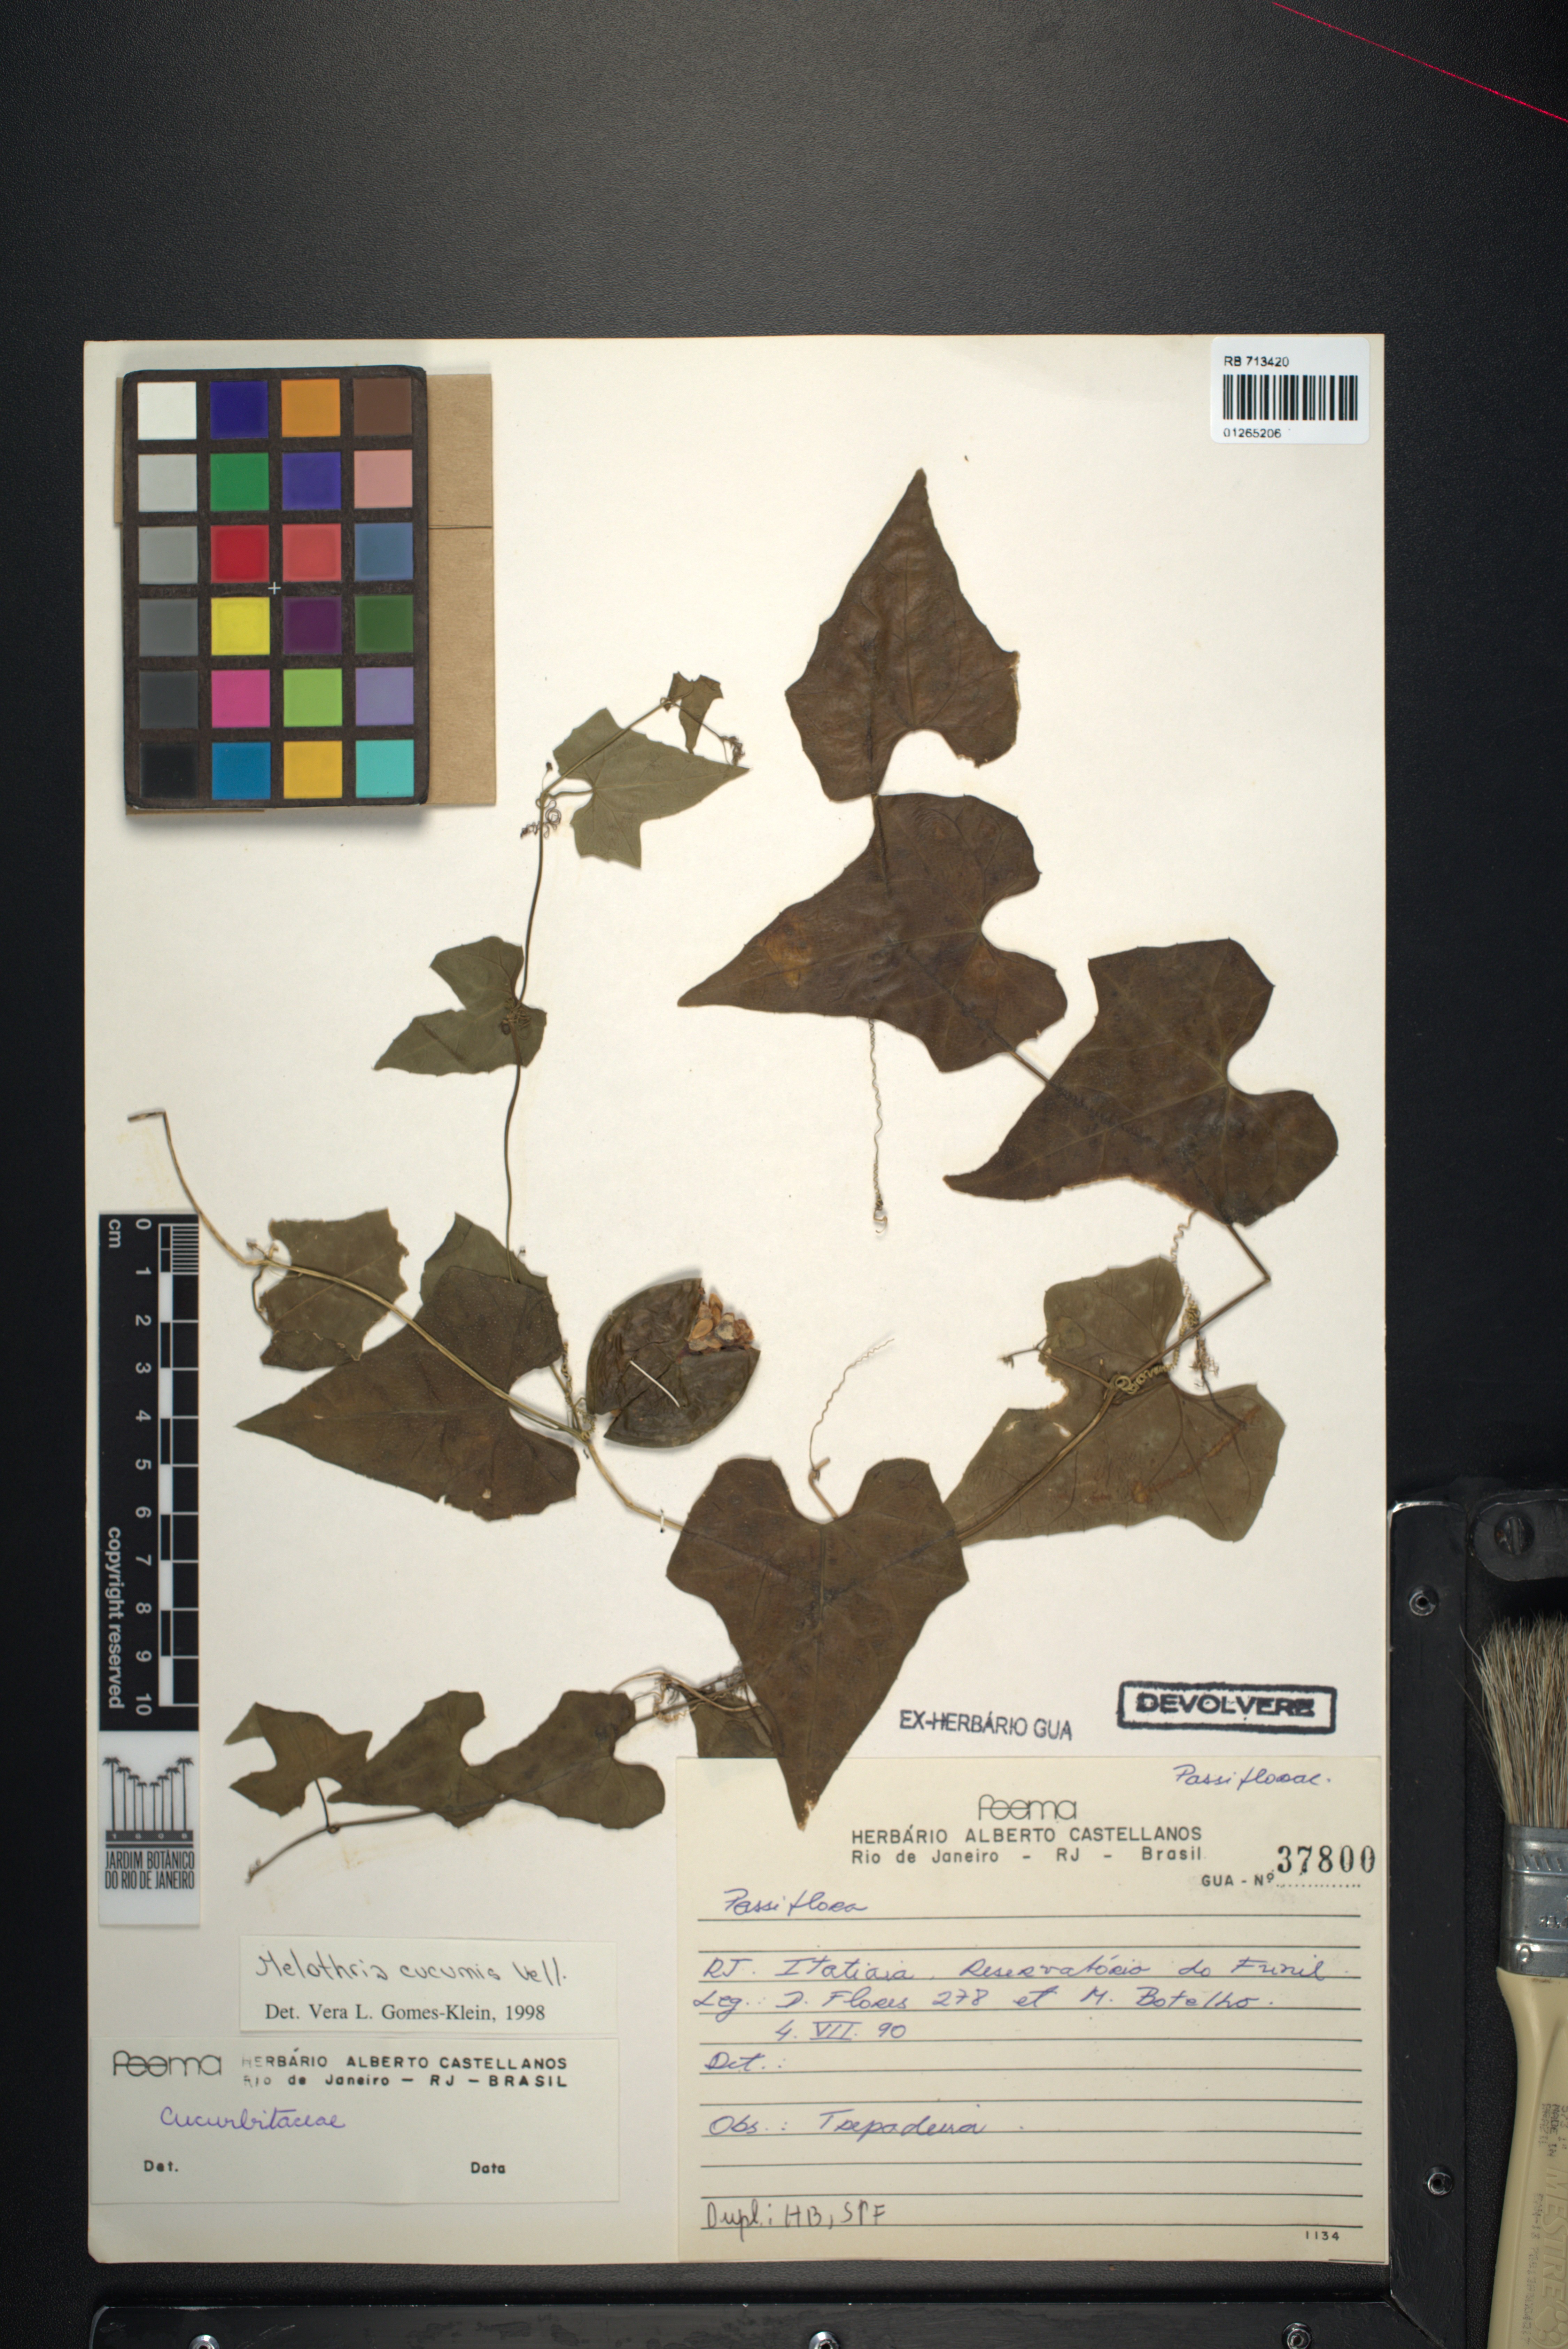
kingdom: Plantae
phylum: Tracheophyta
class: Magnoliopsida
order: Cucurbitales
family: Cucurbitaceae
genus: Melothria
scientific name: Melothria cucumis
